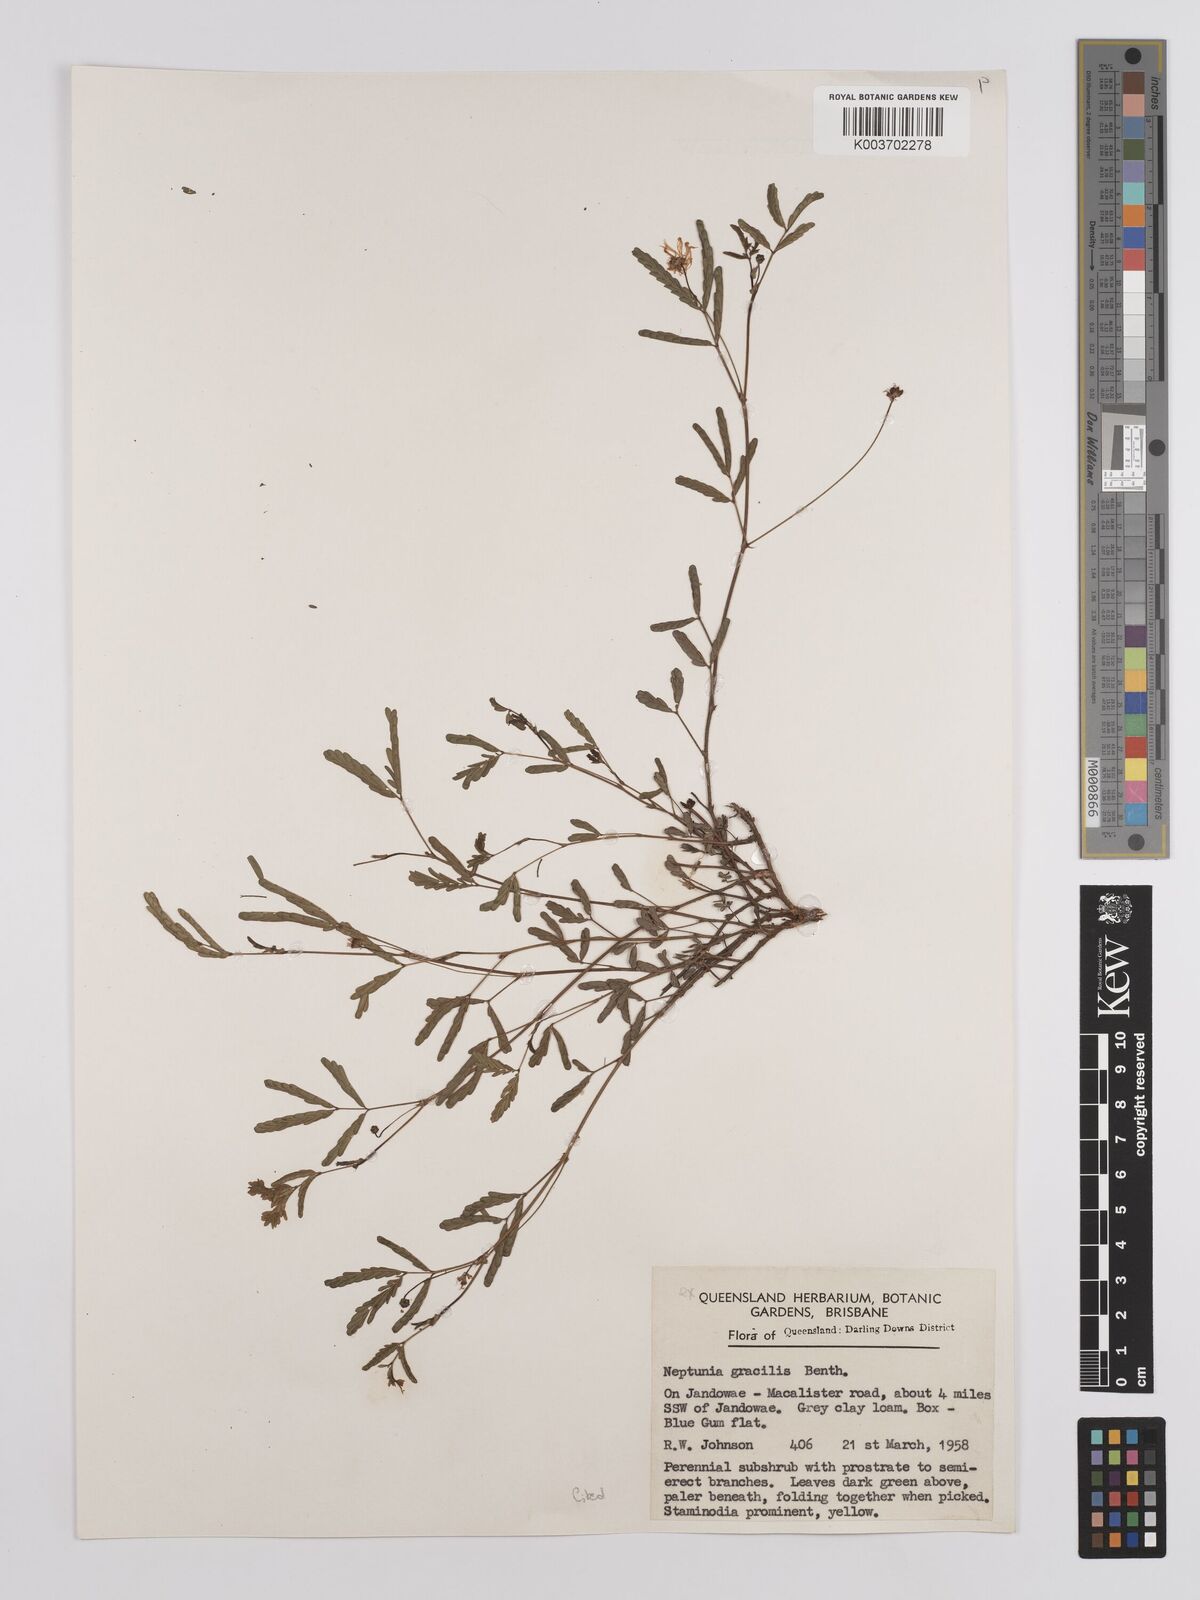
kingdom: Plantae
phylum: Tracheophyta
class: Magnoliopsida
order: Fabales
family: Fabaceae
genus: Neptunia
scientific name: Neptunia gracilis
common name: Sensitive-plant
